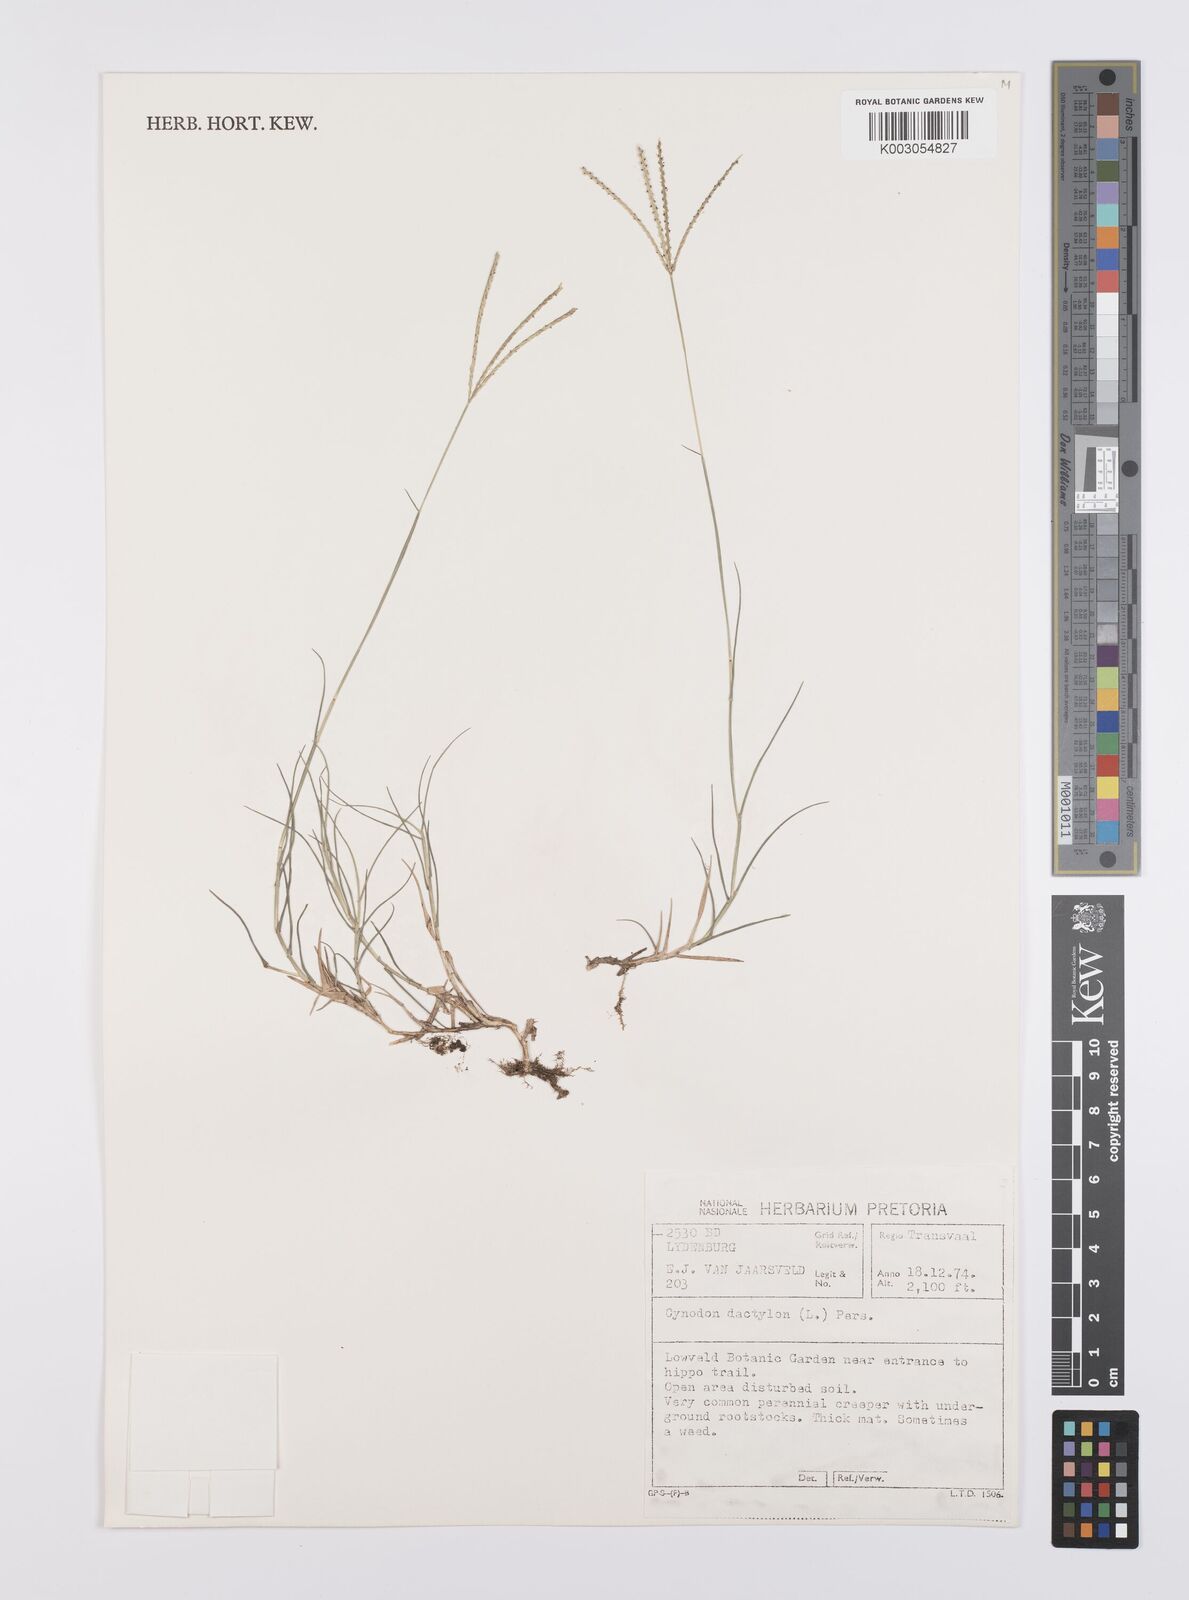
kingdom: Plantae
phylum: Tracheophyta
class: Liliopsida
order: Poales
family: Poaceae
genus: Cynodon
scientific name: Cynodon dactylon
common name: Bermuda grass
